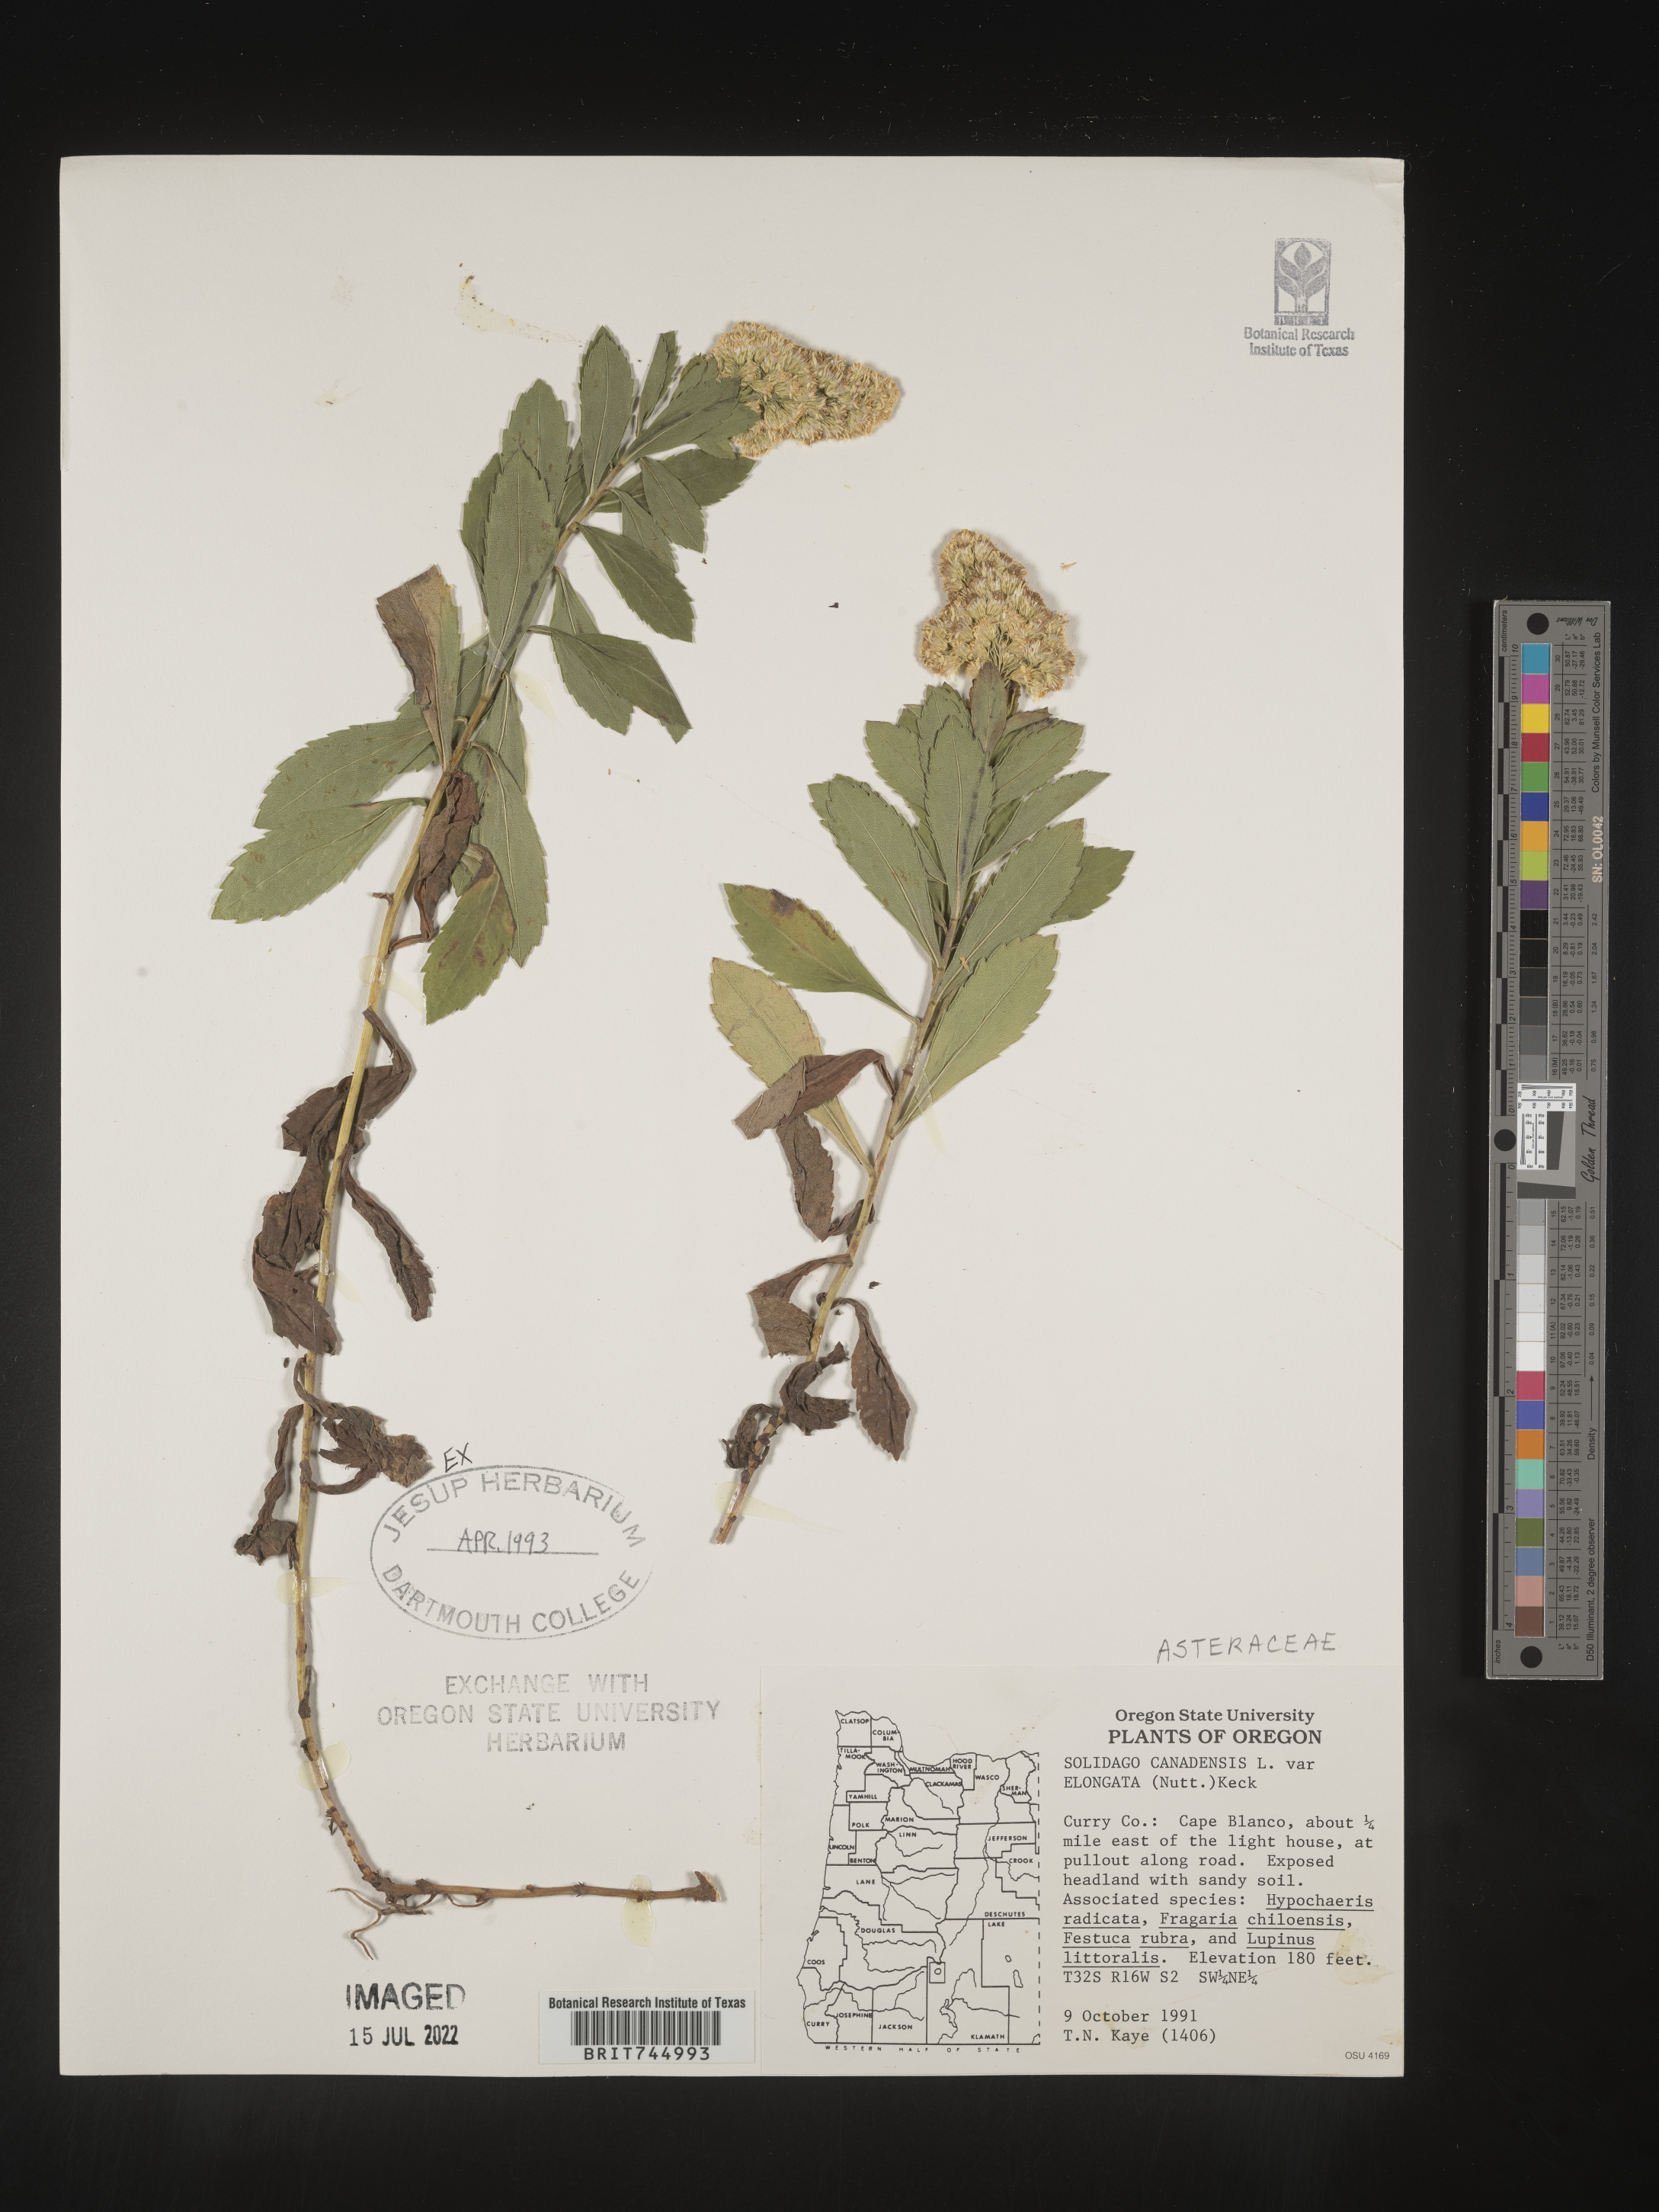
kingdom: Plantae
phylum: Tracheophyta
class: Magnoliopsida
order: Asterales
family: Asteraceae
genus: Solidago
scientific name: Solidago elongata
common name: Cascade canada goldenrod
